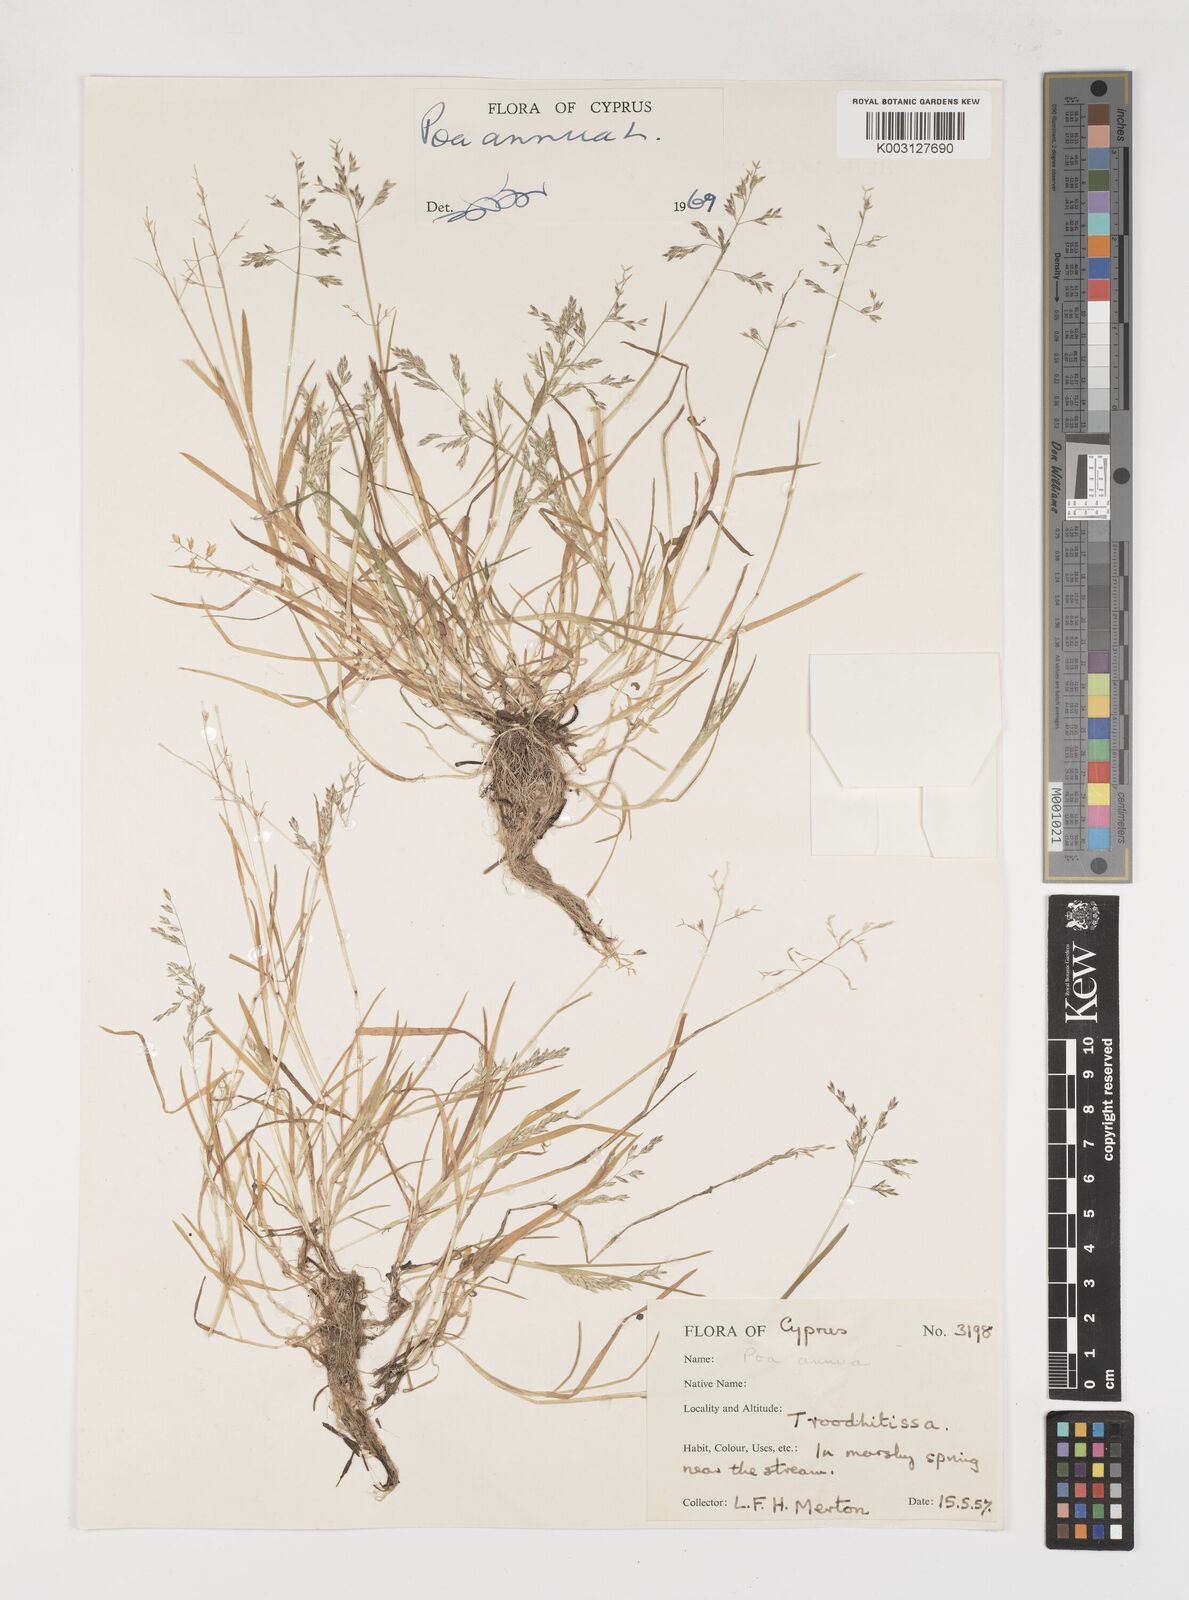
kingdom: Plantae
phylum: Tracheophyta
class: Liliopsida
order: Poales
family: Poaceae
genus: Poa
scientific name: Poa annua
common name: Annual bluegrass
